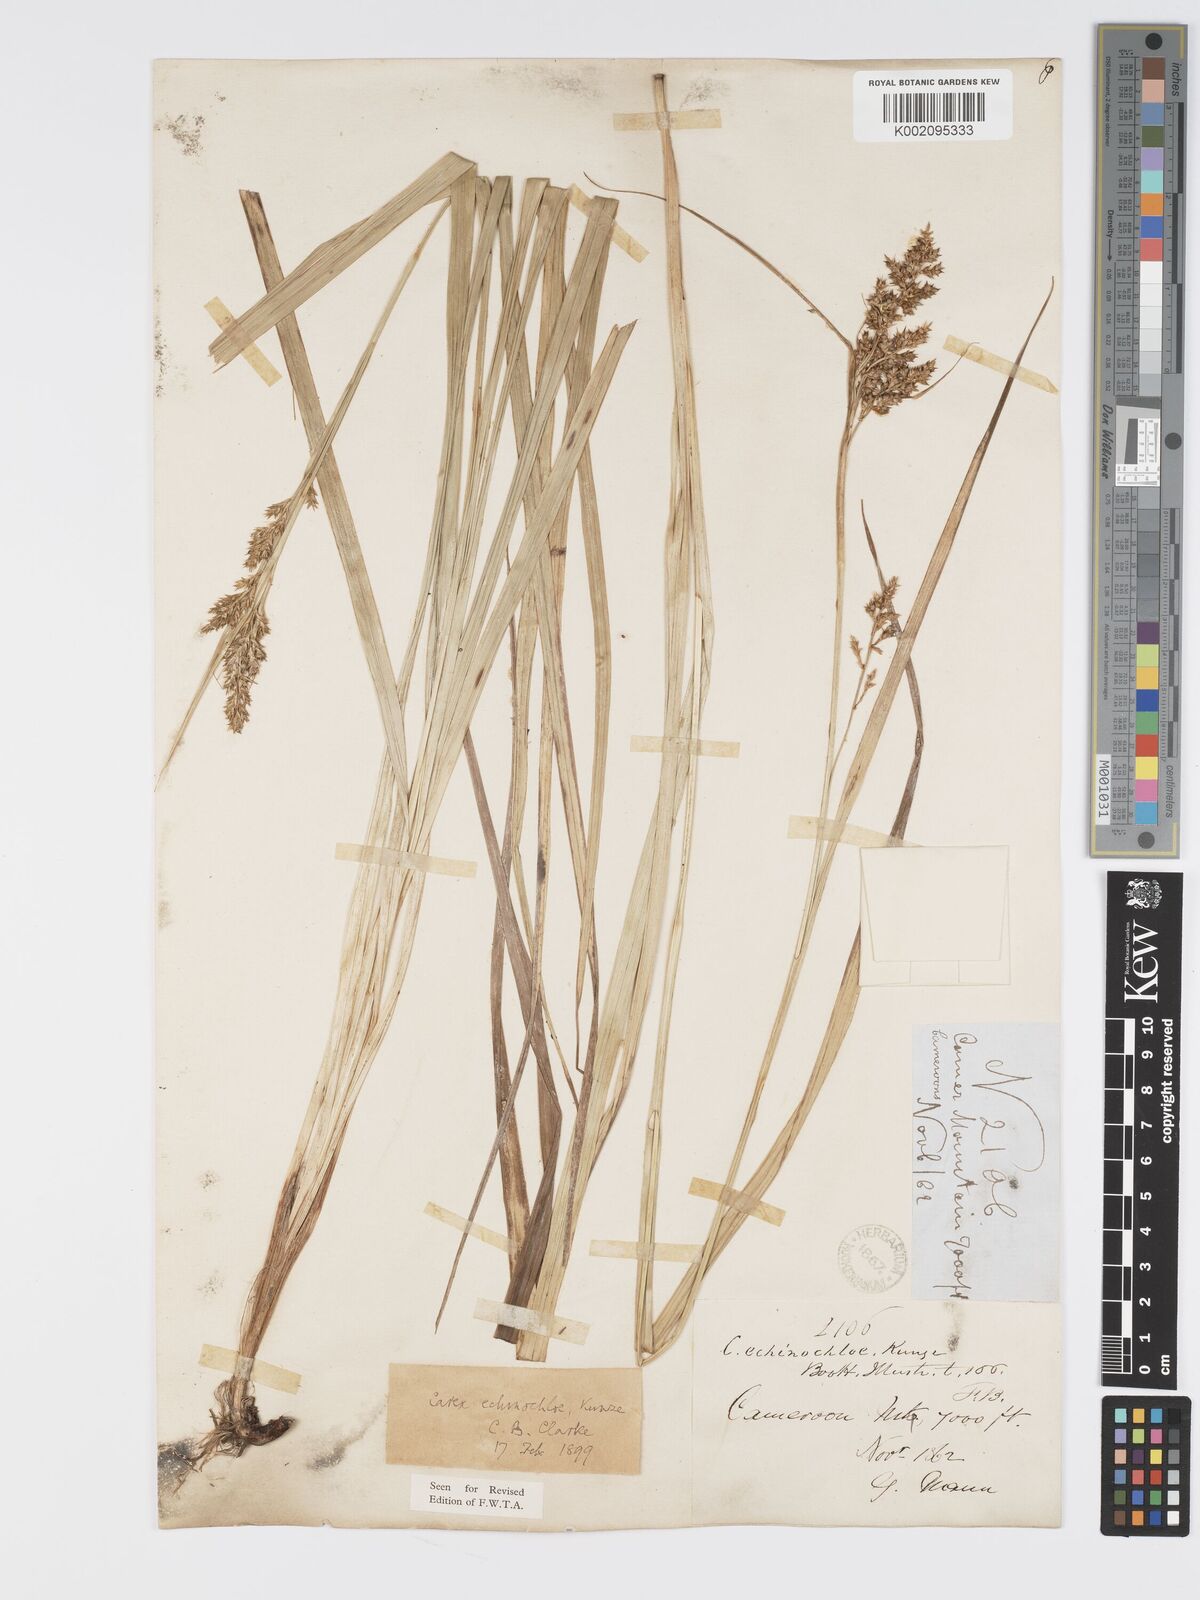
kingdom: Plantae
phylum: Tracheophyta
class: Liliopsida
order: Poales
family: Cyperaceae
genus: Carex
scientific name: Carex echinochloe
